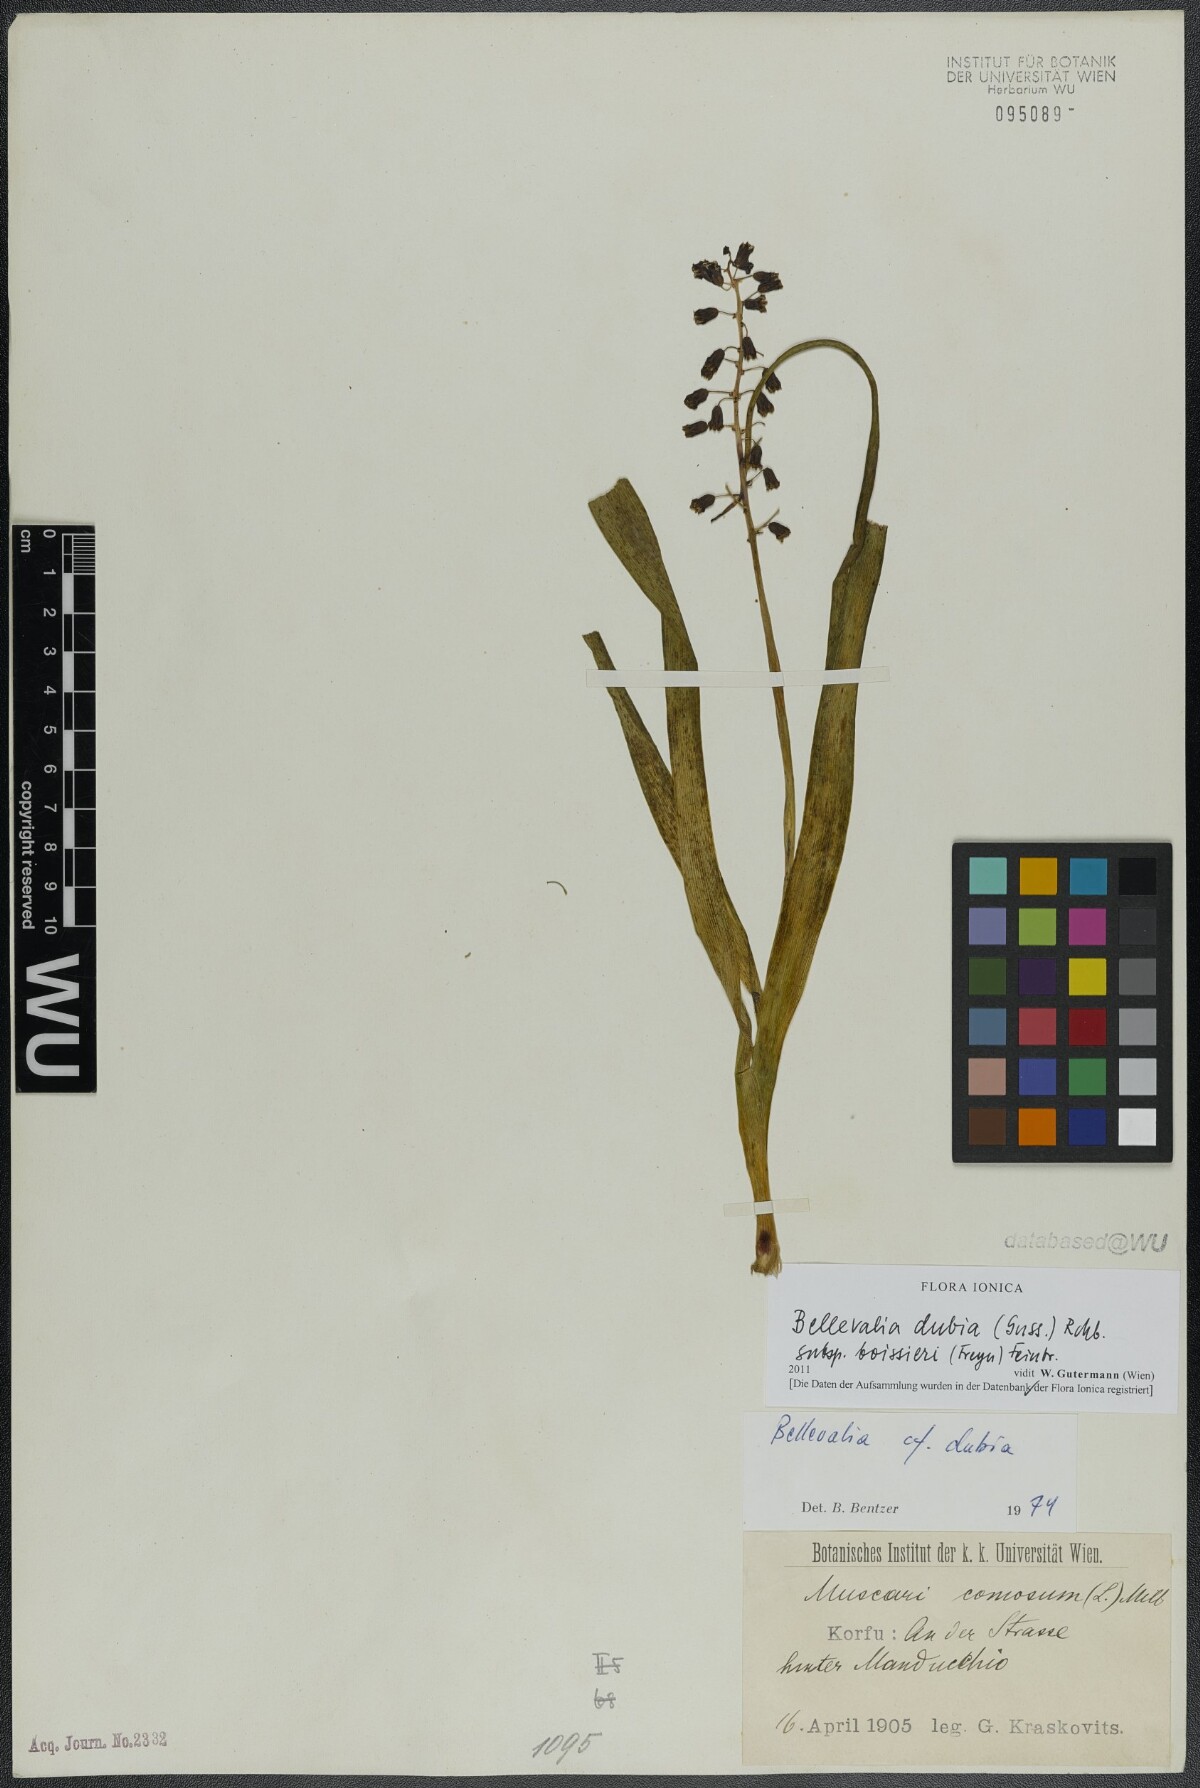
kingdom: Plantae
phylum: Tracheophyta
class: Liliopsida
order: Asparagales
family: Asparagaceae
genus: Bellevalia
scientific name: Bellevalia dubia
